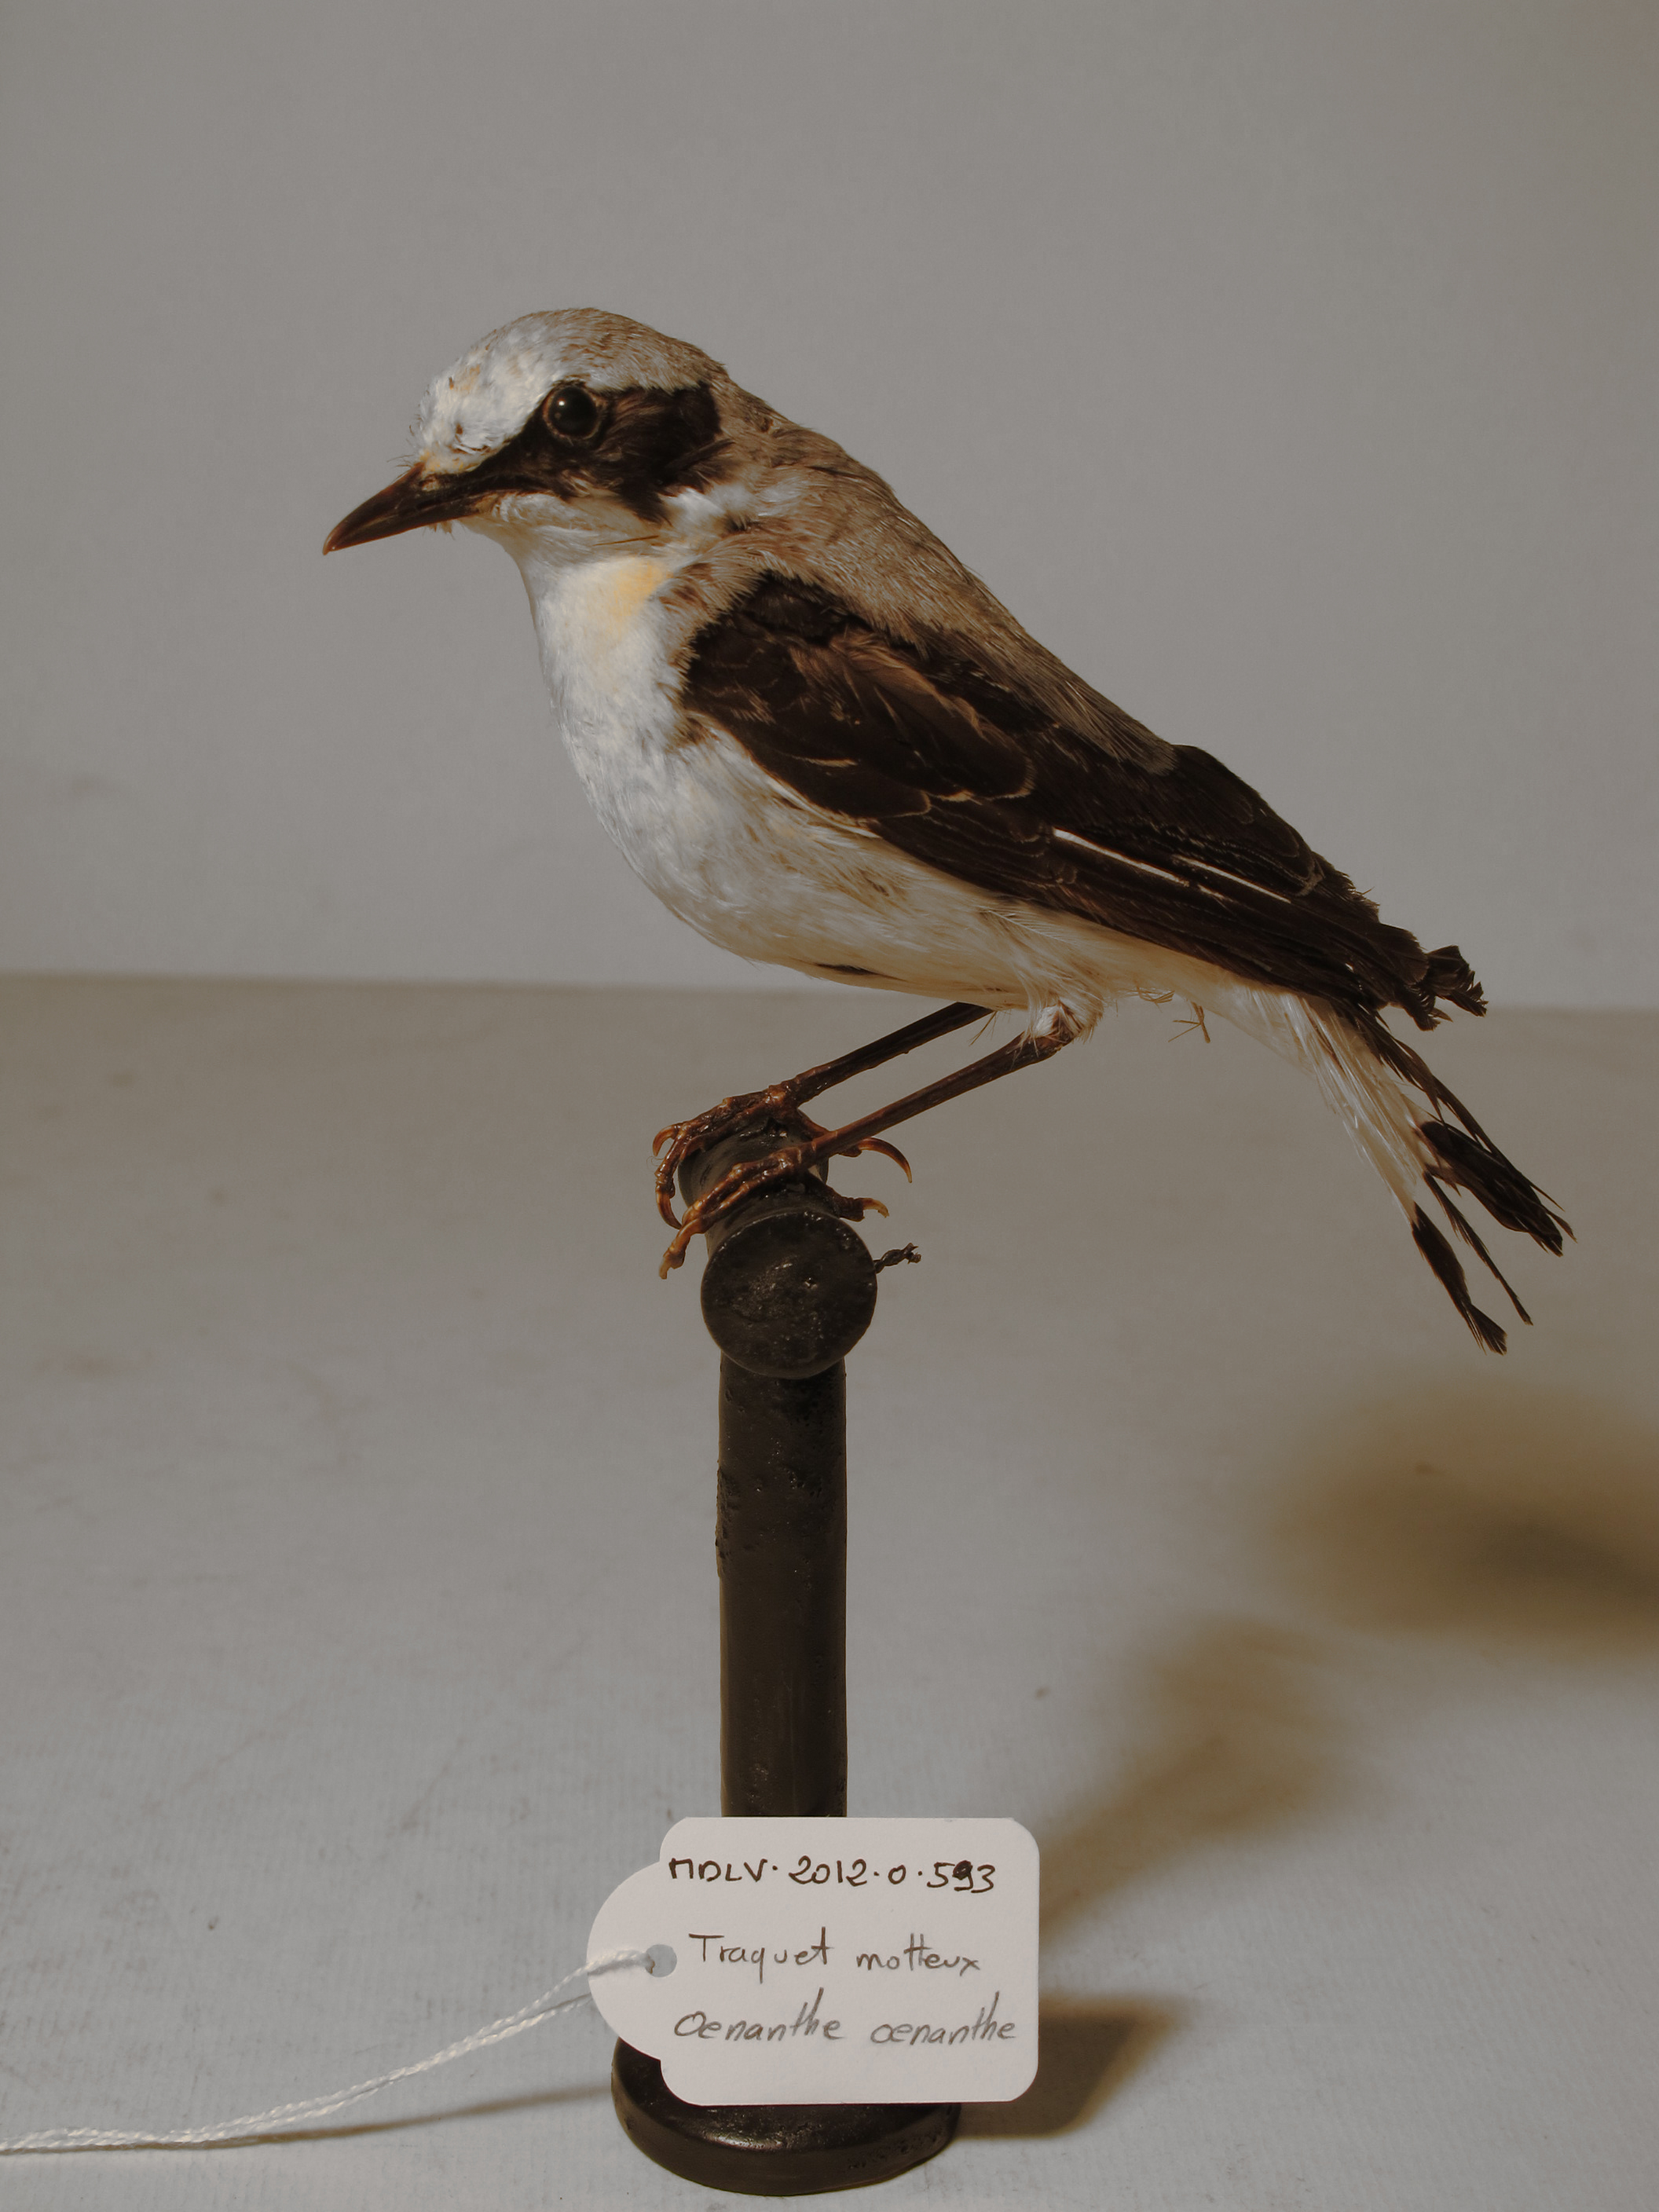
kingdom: Animalia
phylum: Chordata
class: Aves
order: Passeriformes
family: Muscicapidae
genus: Oenanthe
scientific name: Oenanthe oenanthe
